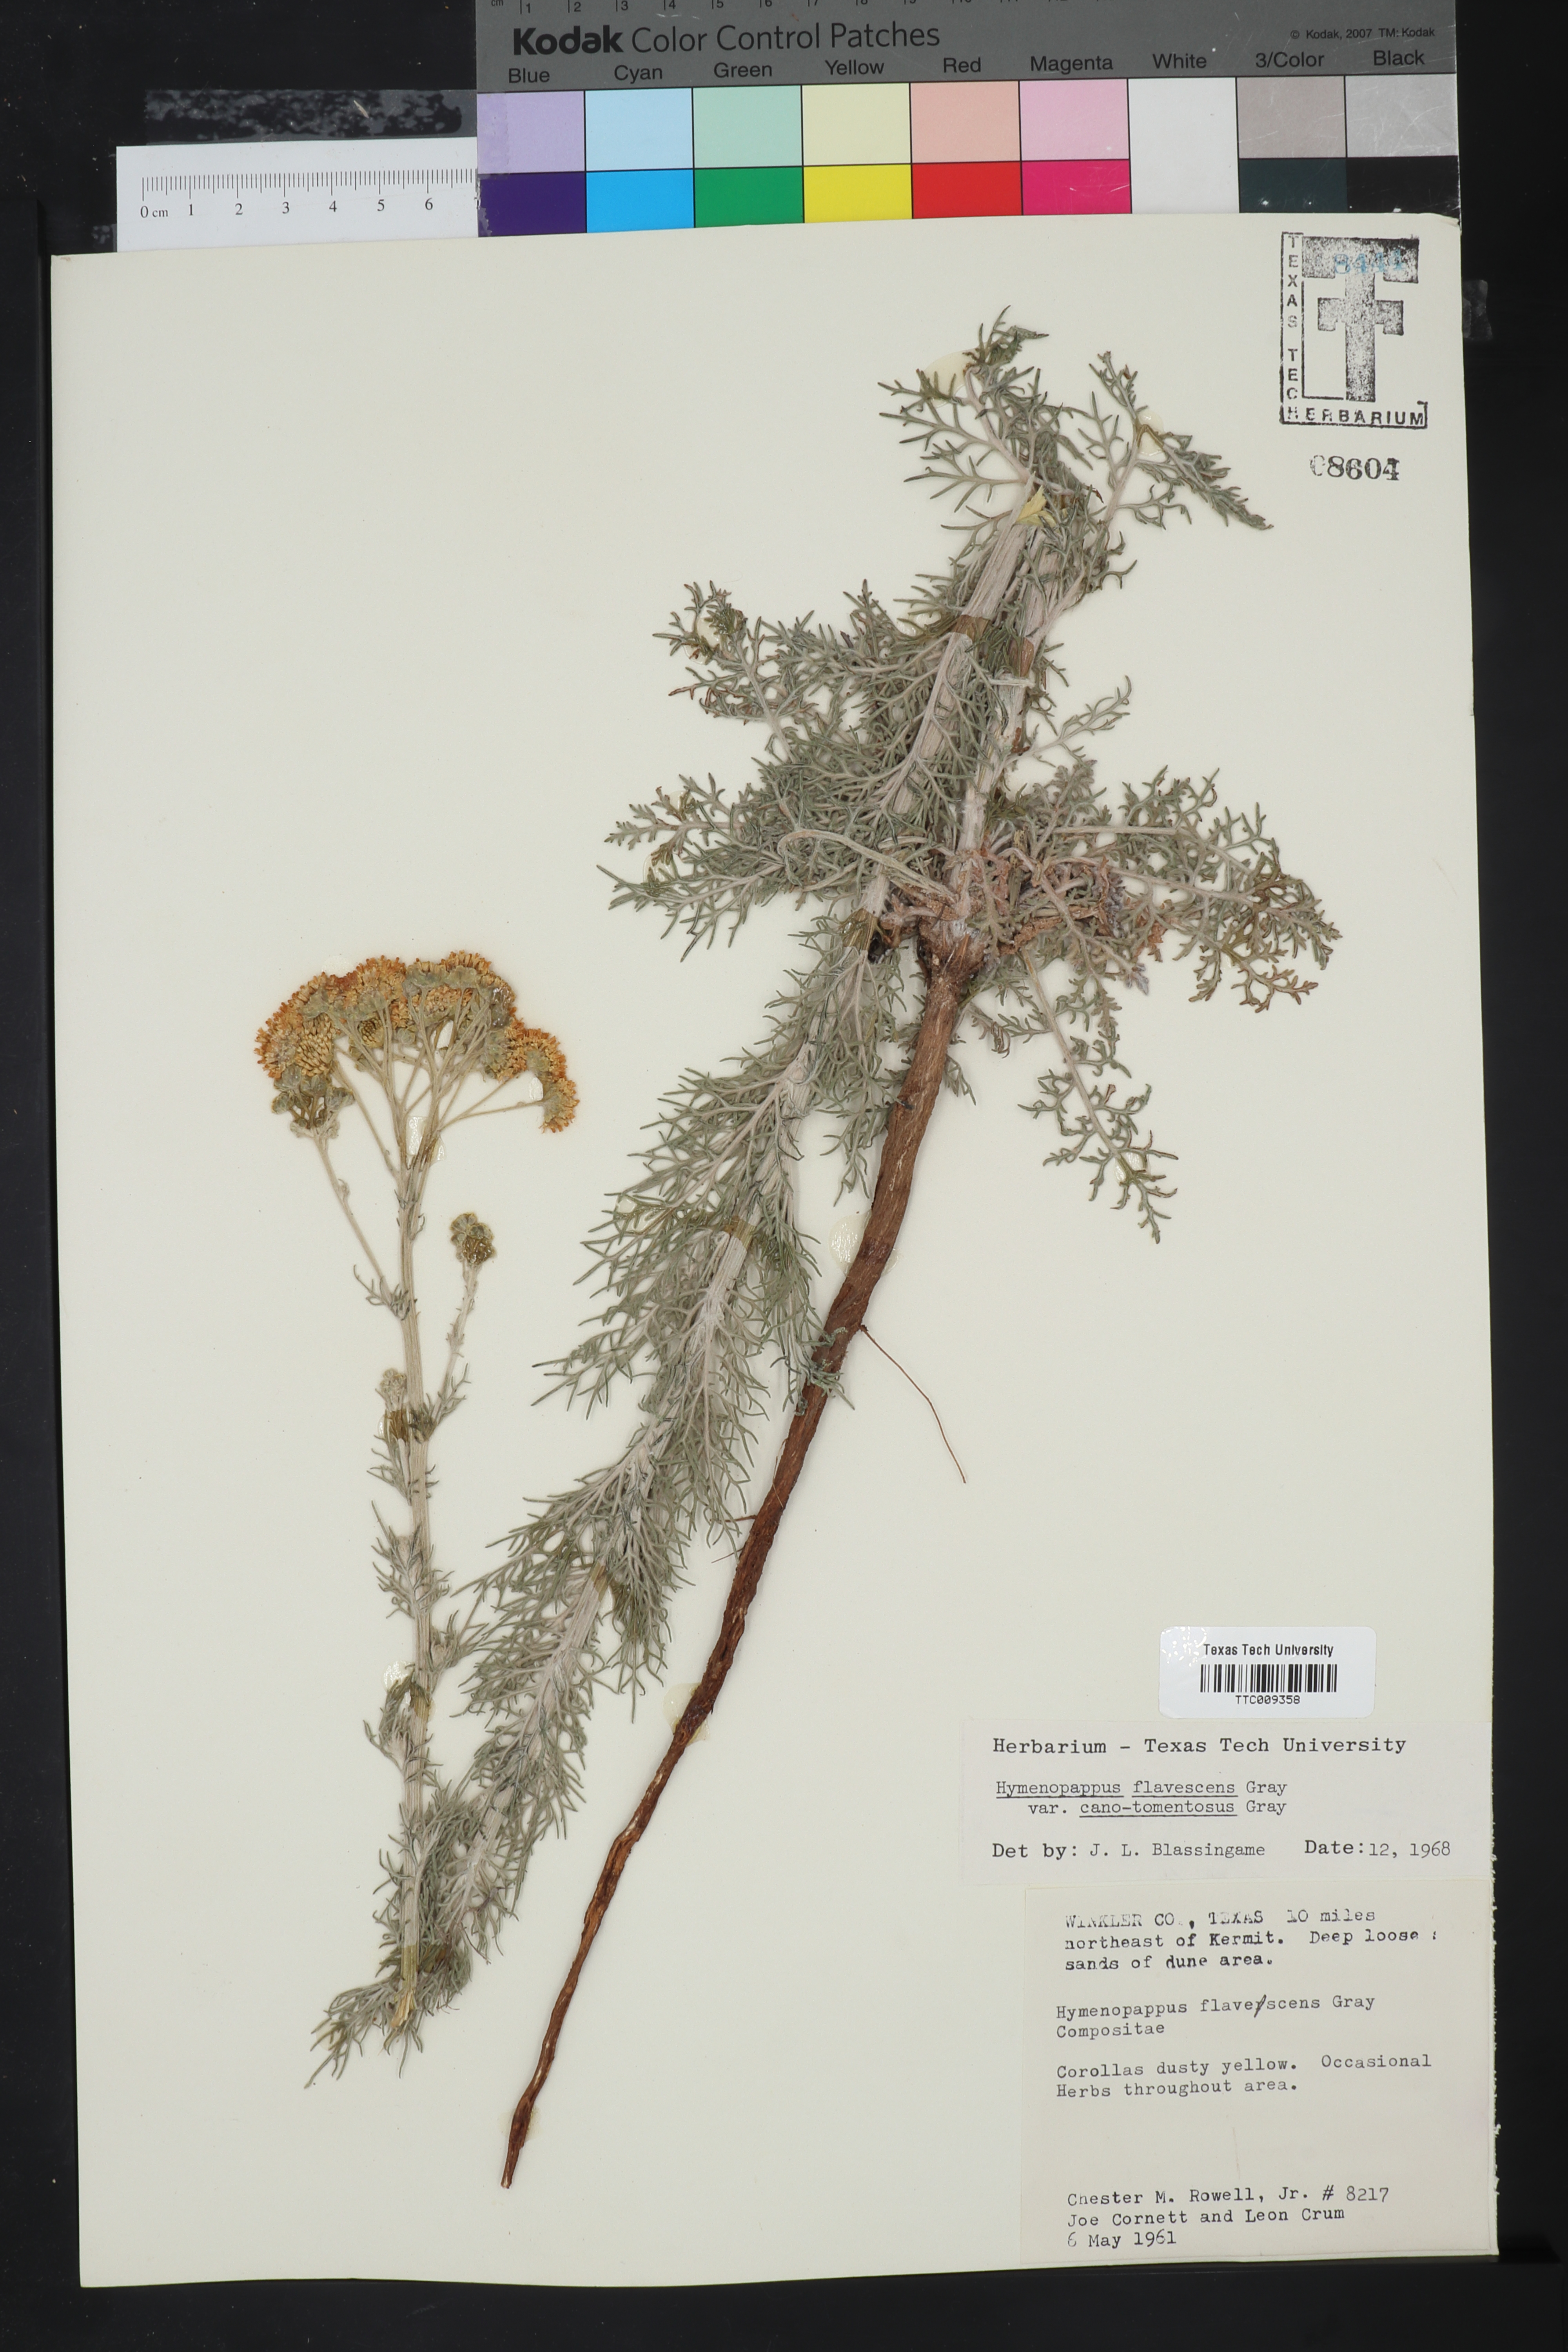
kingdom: Plantae
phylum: Tracheophyta
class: Magnoliopsida
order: Asterales
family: Asteraceae
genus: Hymenopappus
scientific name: Hymenopappus flavescens
